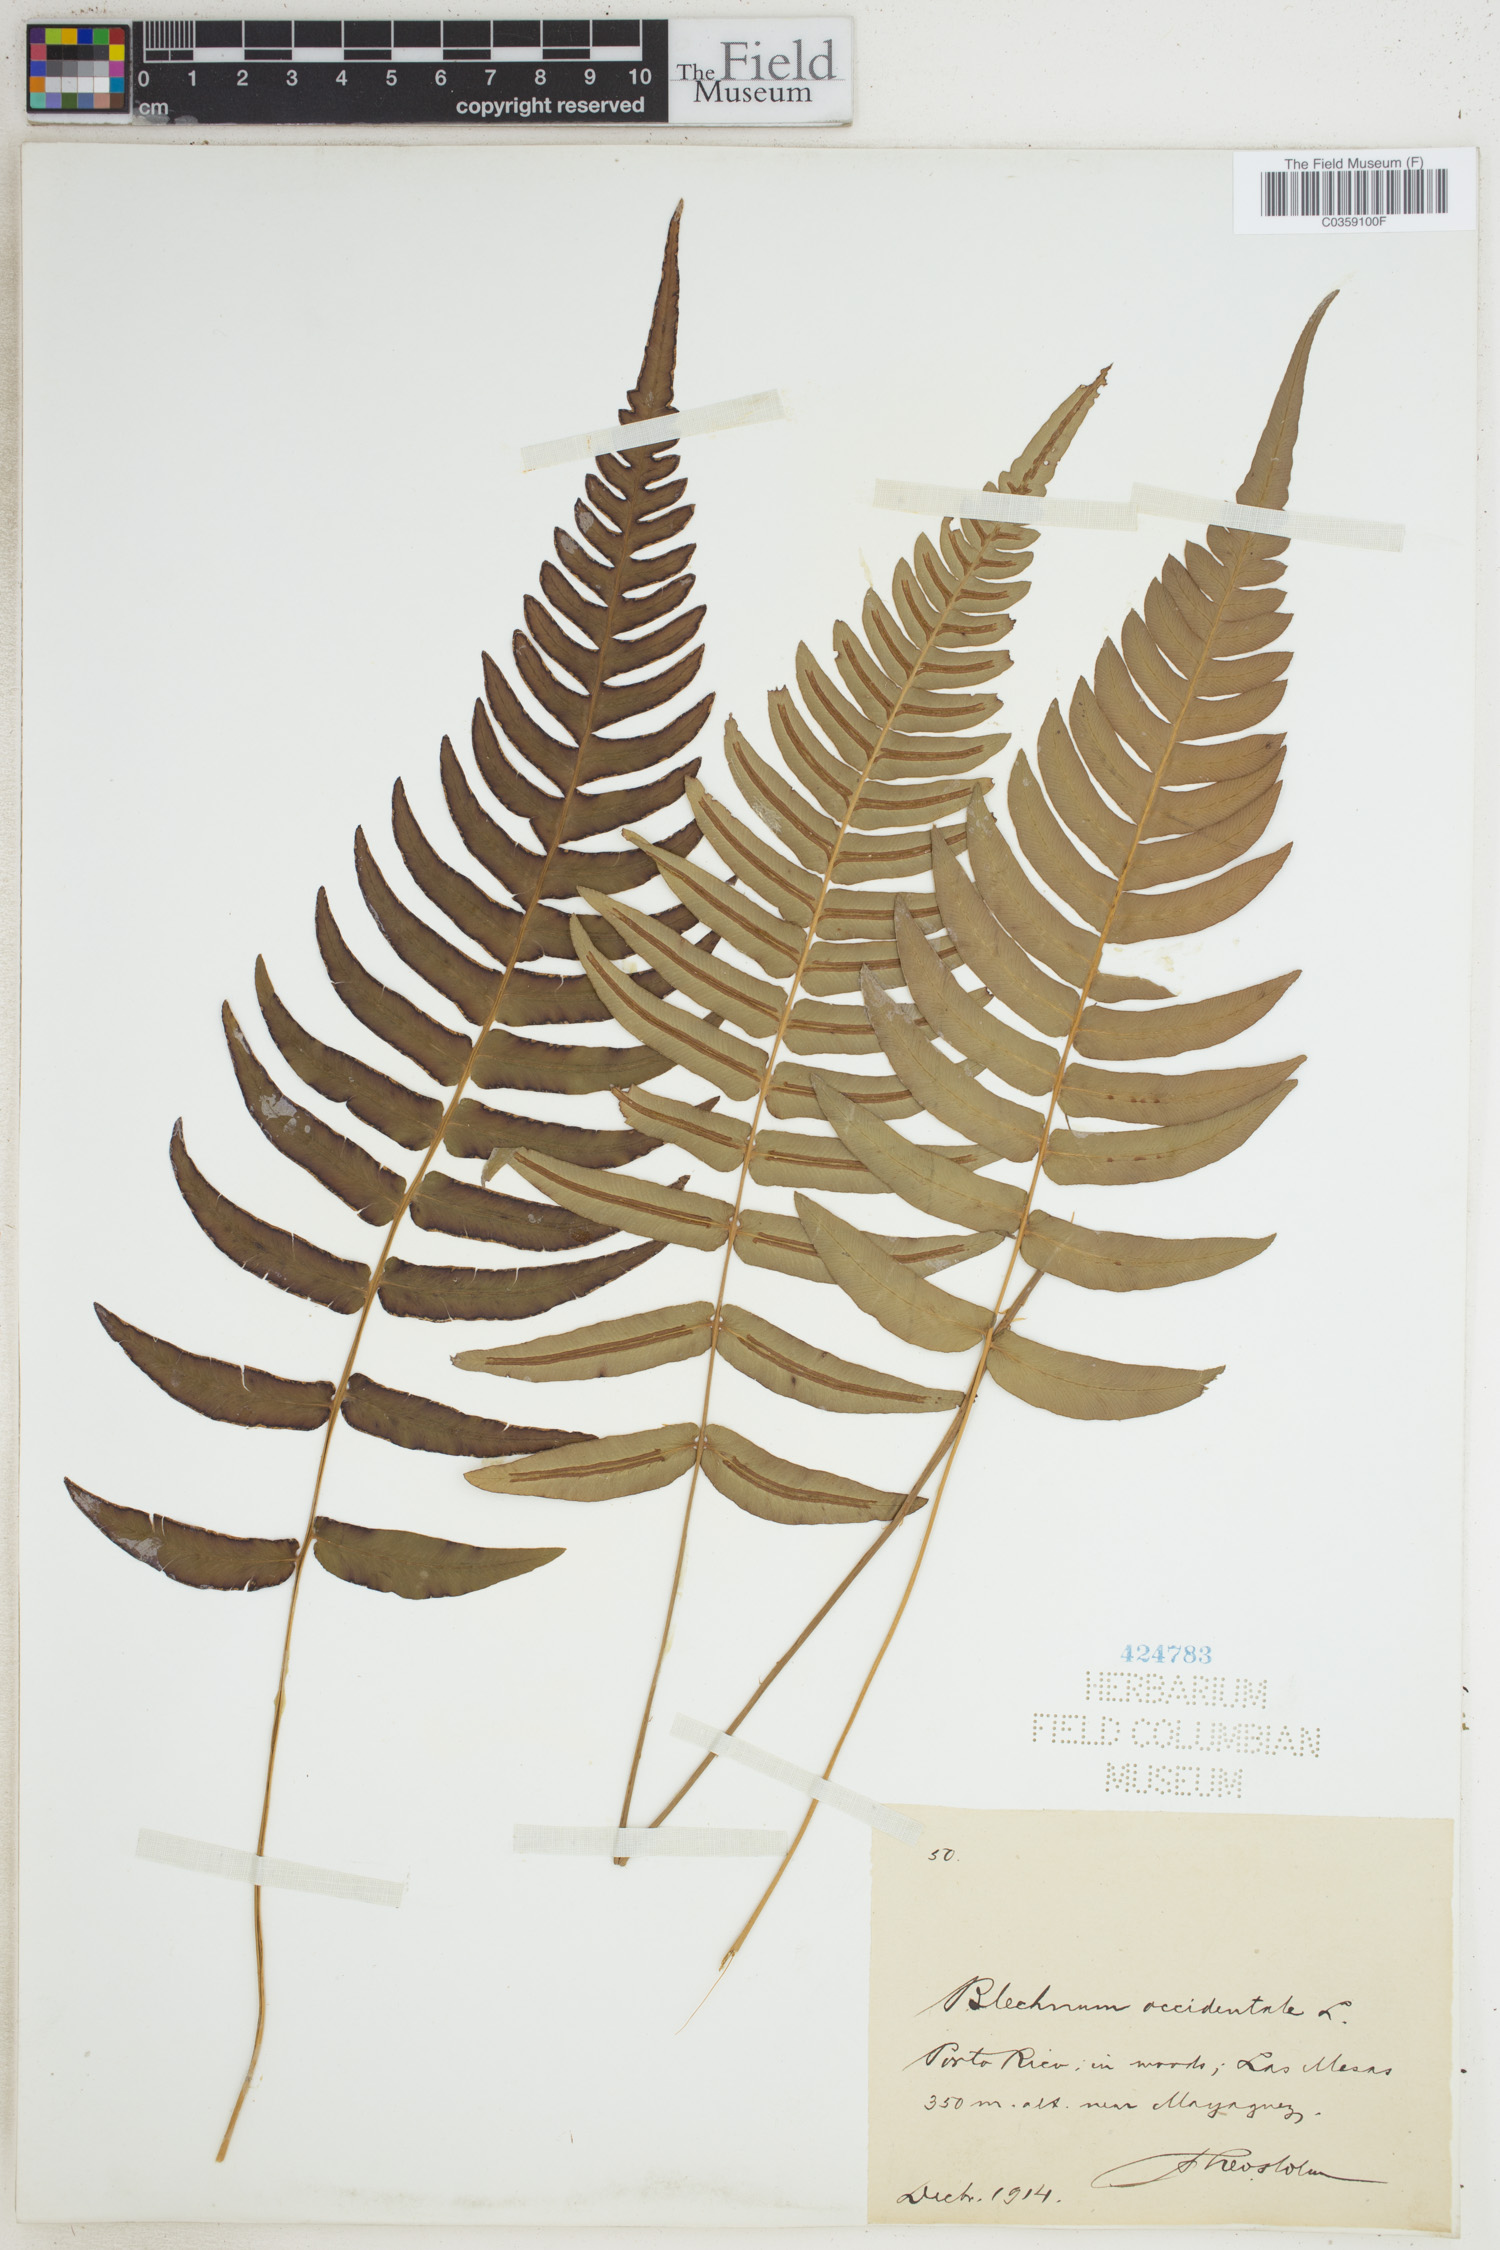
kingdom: Plantae
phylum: Tracheophyta
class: Polypodiopsida
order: Polypodiales
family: Blechnaceae
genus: Blechnum
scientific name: Blechnum occidentale
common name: Hammock fern
